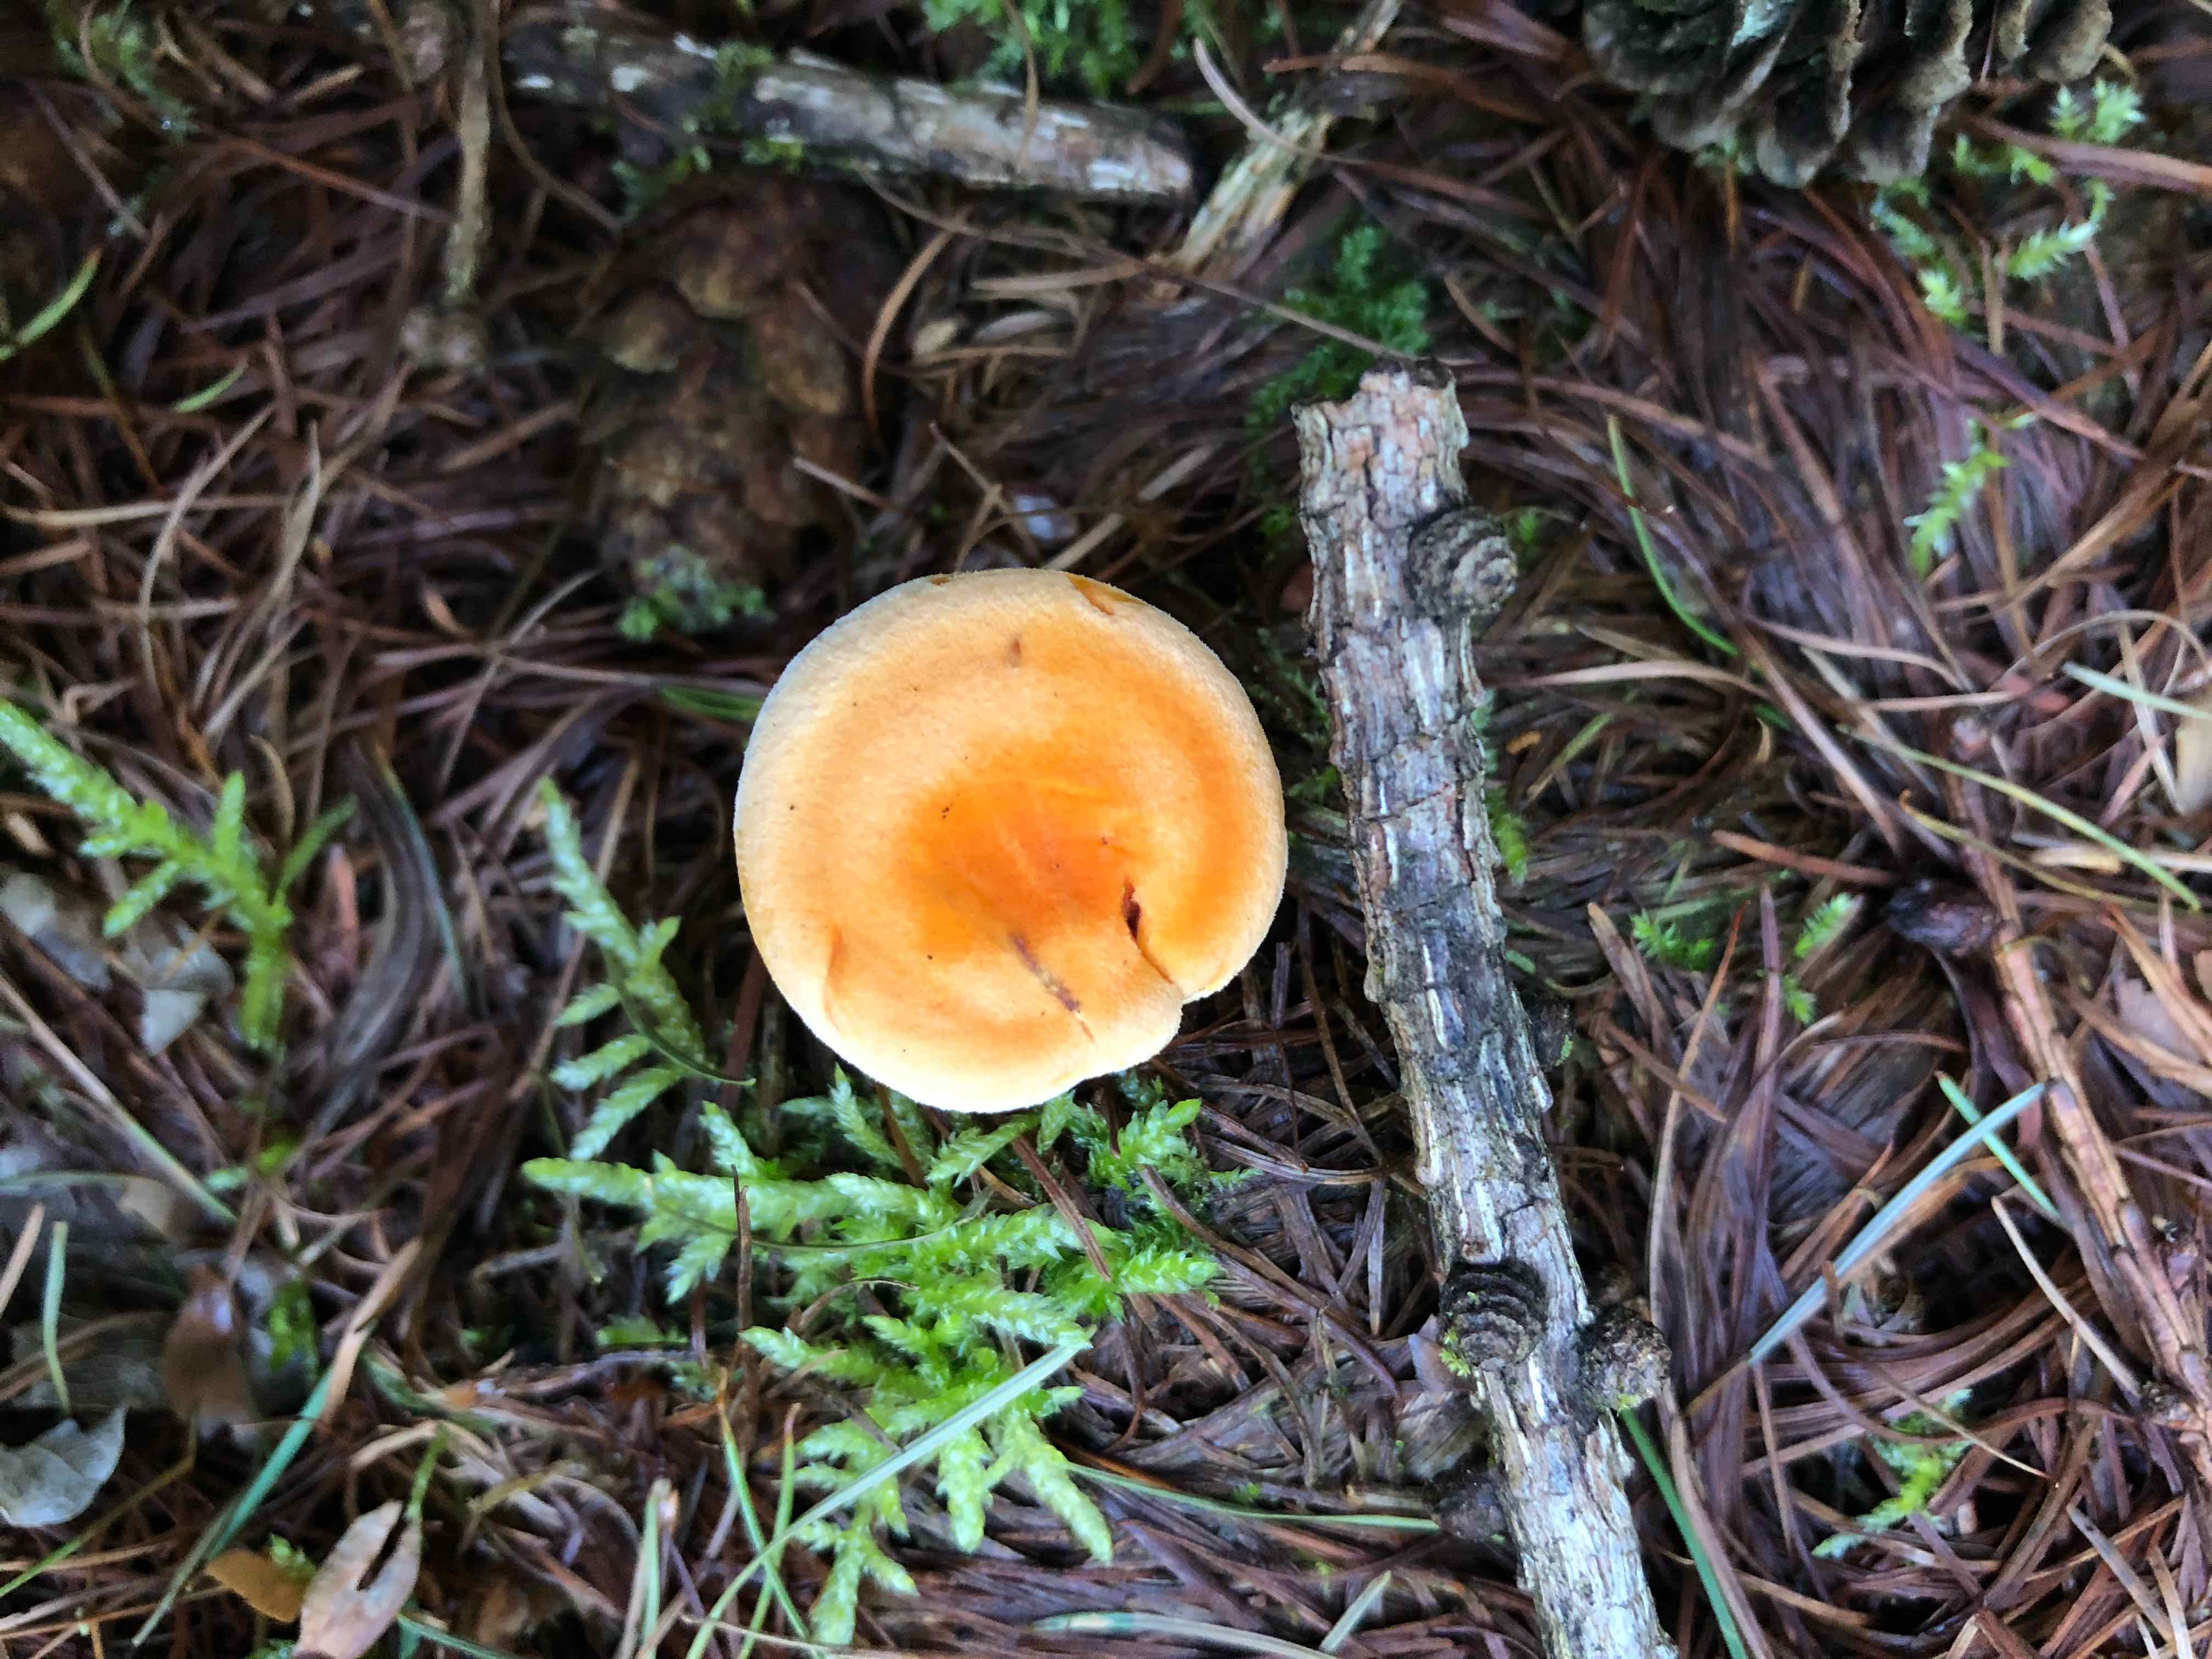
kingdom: Fungi
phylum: Basidiomycota
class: Agaricomycetes
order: Boletales
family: Hygrophoropsidaceae
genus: Hygrophoropsis
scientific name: Hygrophoropsis aurantiaca
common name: almindelig orangekantarel
